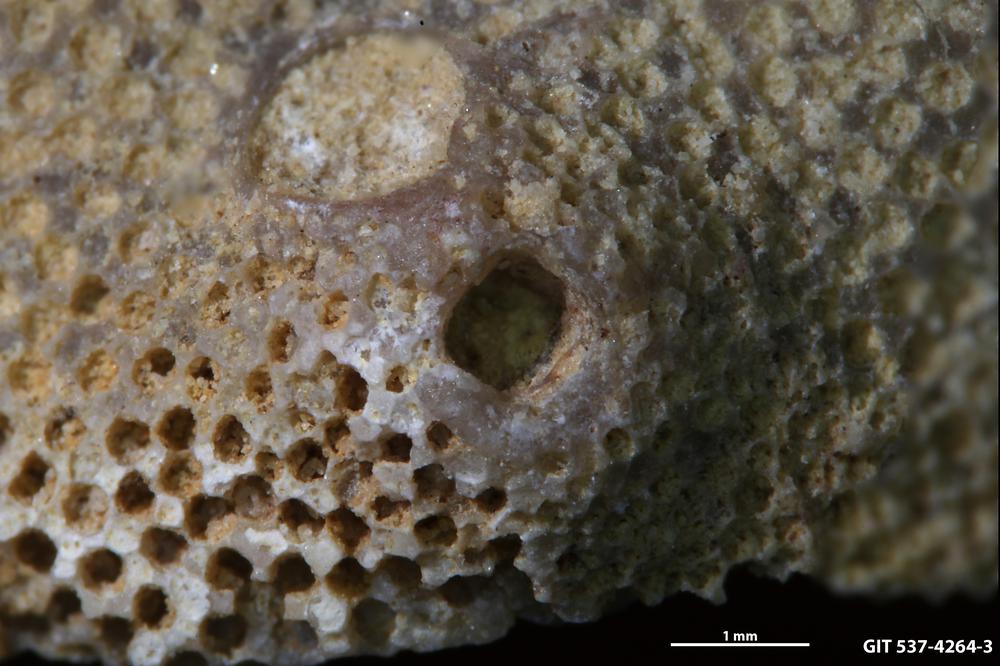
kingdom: Animalia
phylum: Cnidaria
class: Scyphozoa
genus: Climacoconus
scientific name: Climacoconus
